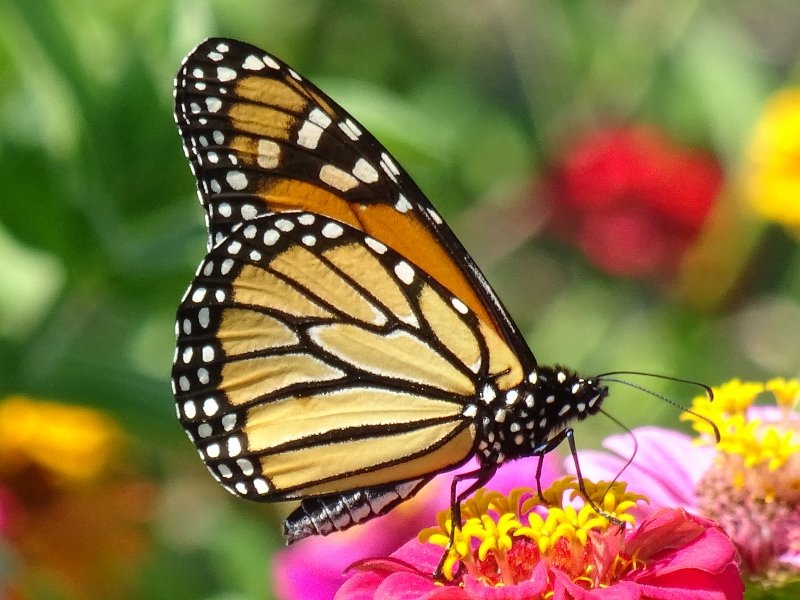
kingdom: Animalia
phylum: Arthropoda
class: Insecta
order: Lepidoptera
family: Nymphalidae
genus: Danaus
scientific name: Danaus plexippus
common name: Monarch
